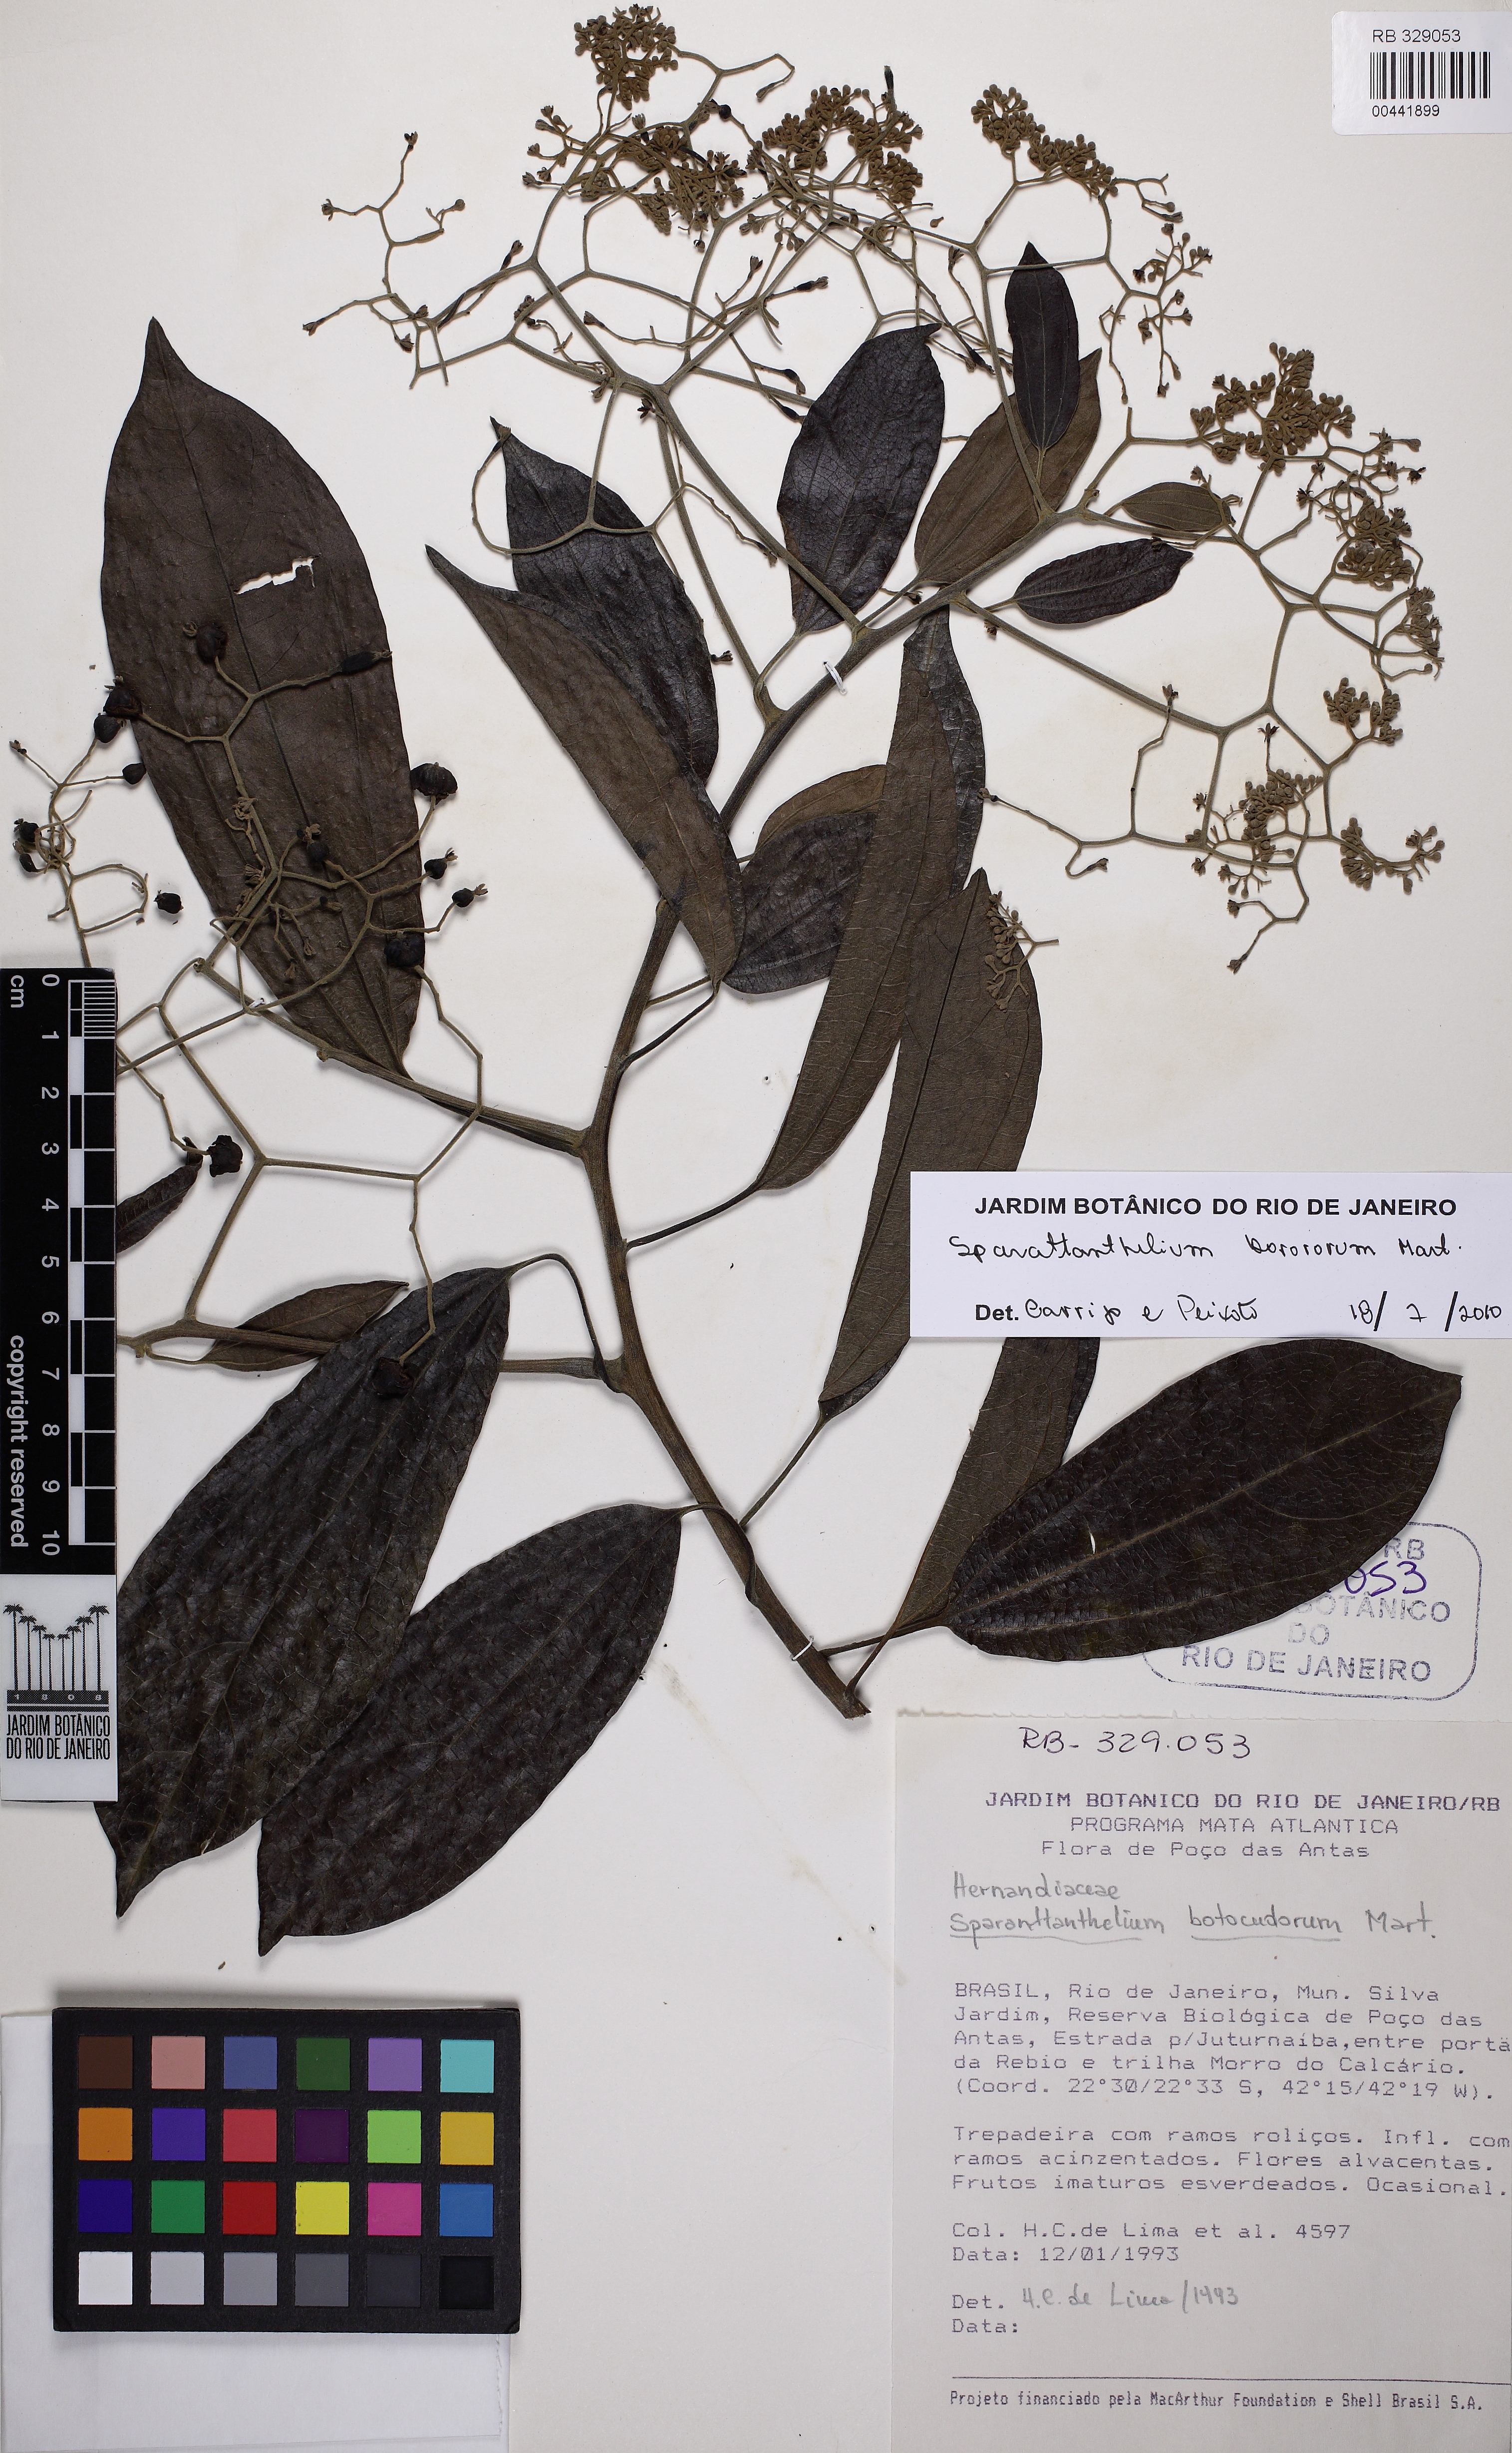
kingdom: Plantae
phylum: Tracheophyta
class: Magnoliopsida
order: Laurales
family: Hernandiaceae
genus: Sparattanthelium
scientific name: Sparattanthelium borororum
